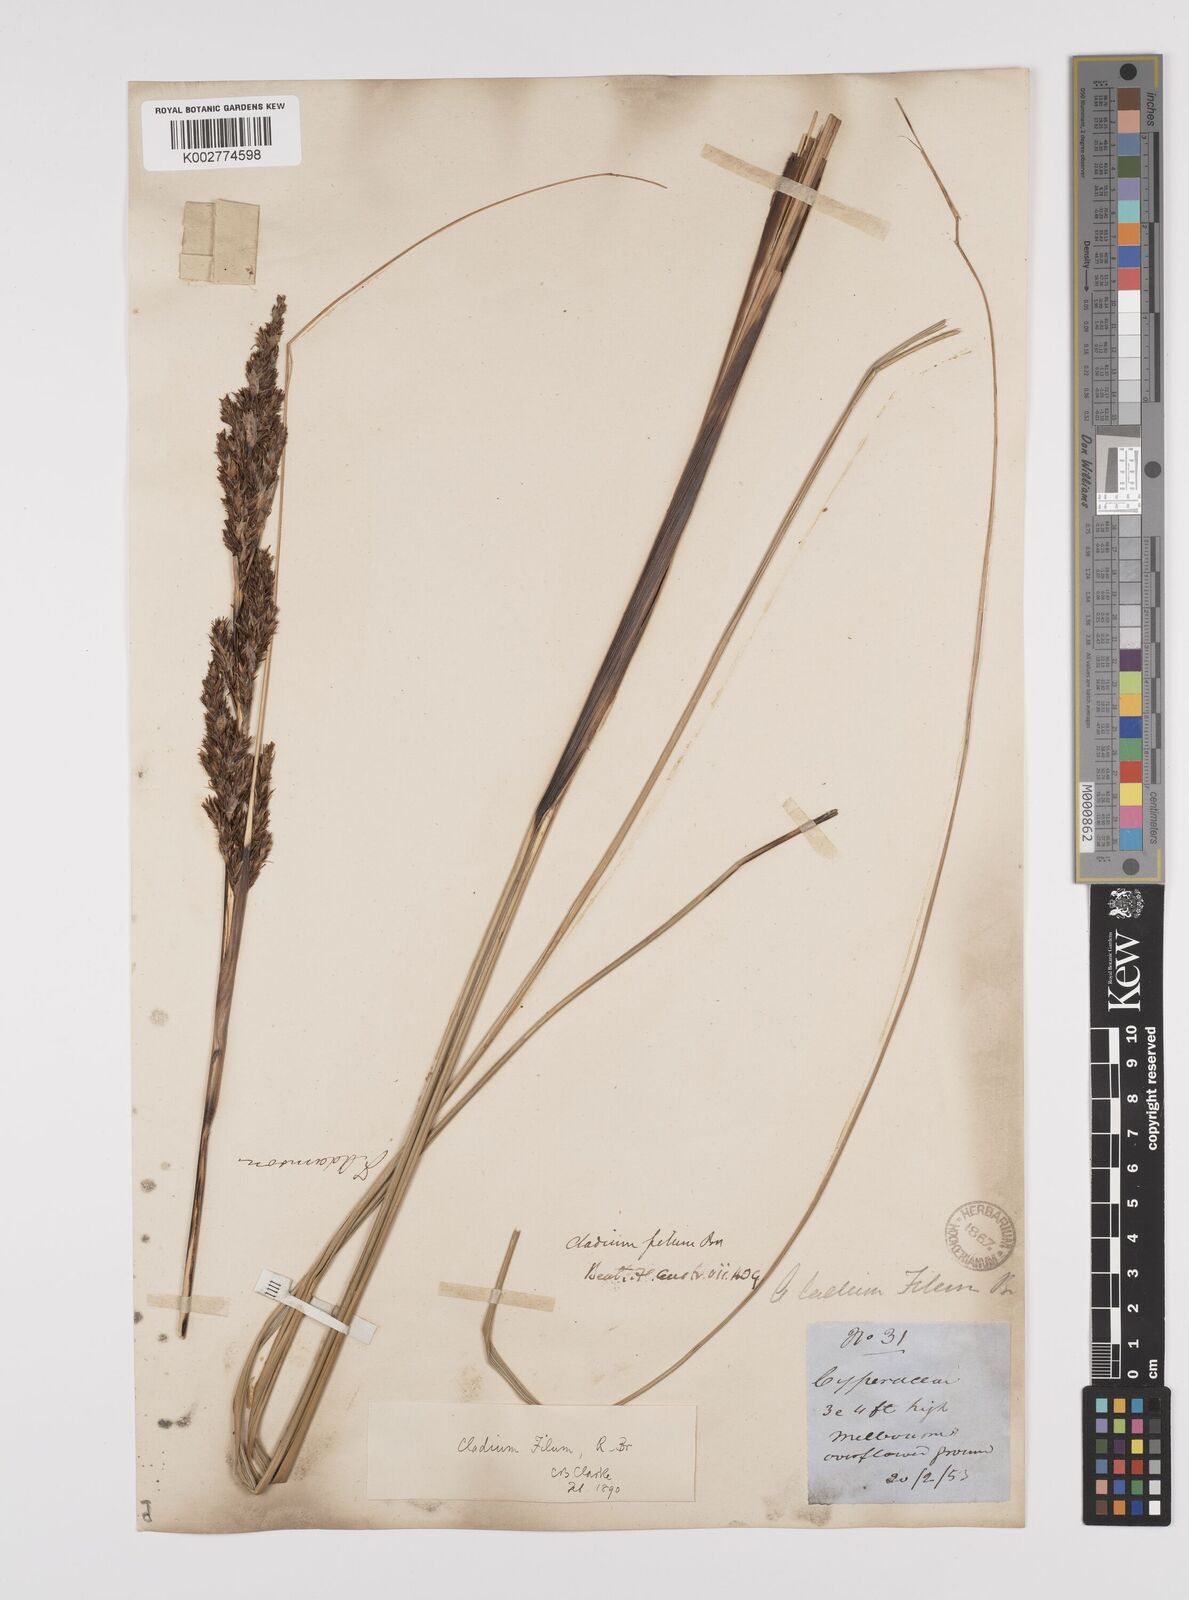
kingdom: Plantae
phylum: Tracheophyta
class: Liliopsida
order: Poales
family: Cyperaceae
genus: Gahnia
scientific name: Gahnia filum
